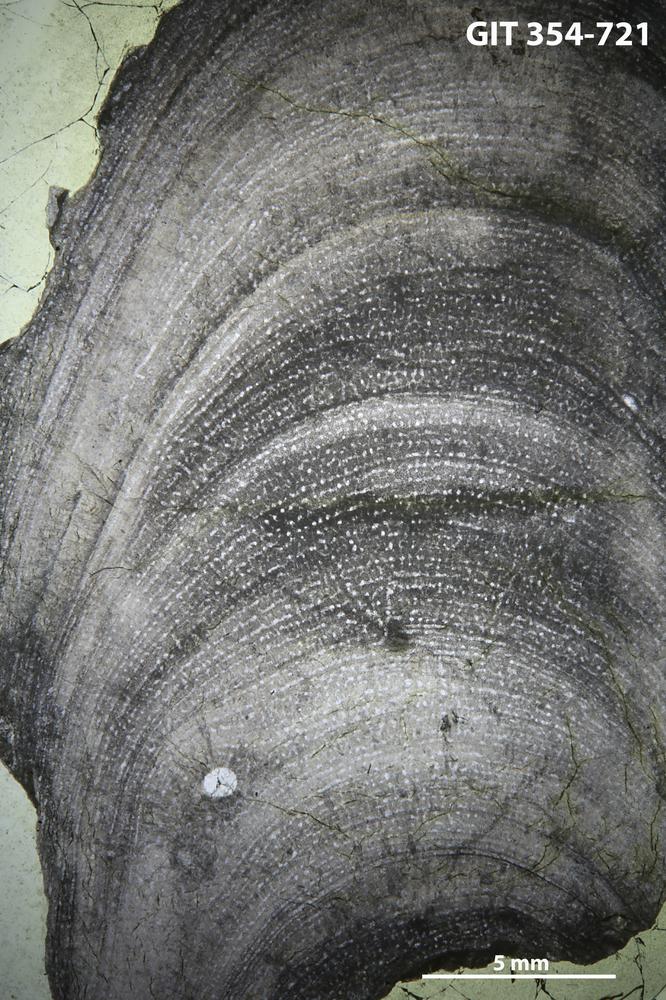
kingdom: Animalia
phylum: Porifera
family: Stromatoporidae
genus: Parallelostroma
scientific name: Parallelostroma
